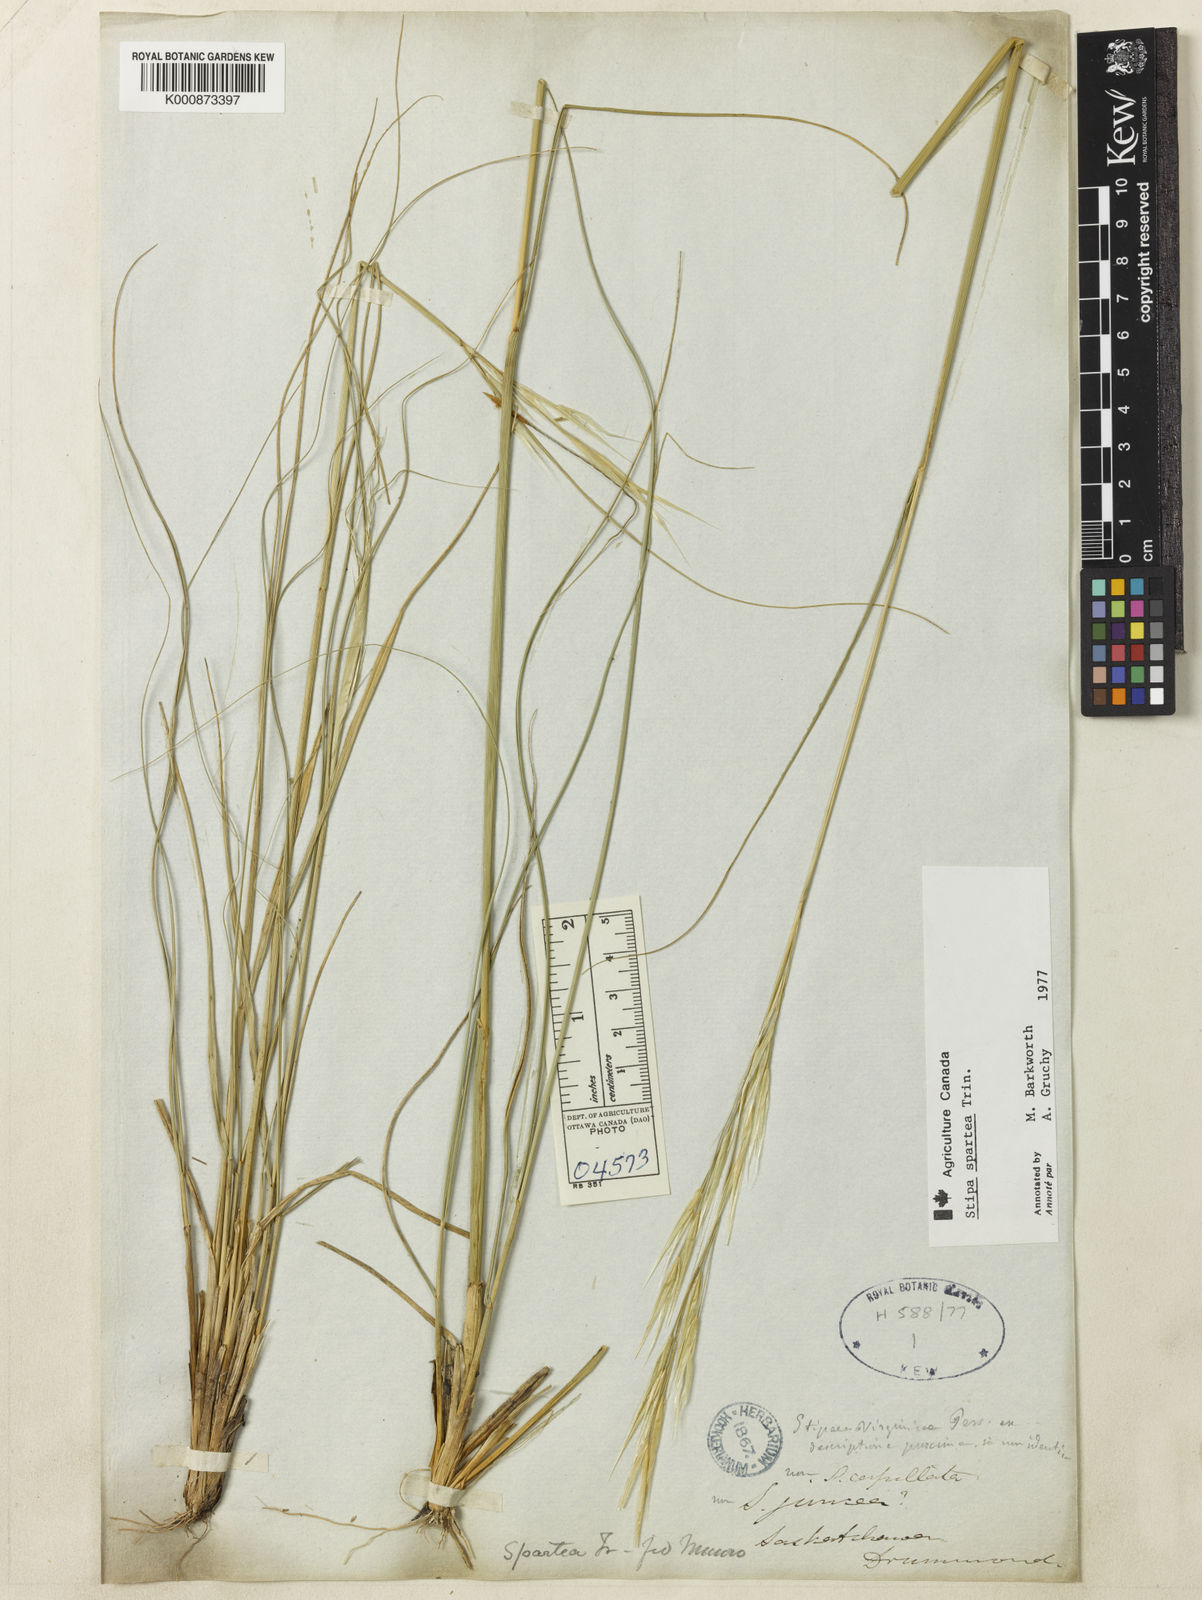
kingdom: Plantae
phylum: Tracheophyta
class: Liliopsida
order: Poales
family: Poaceae
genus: Hesperostipa
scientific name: Hesperostipa spartea
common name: Porcupine grass
